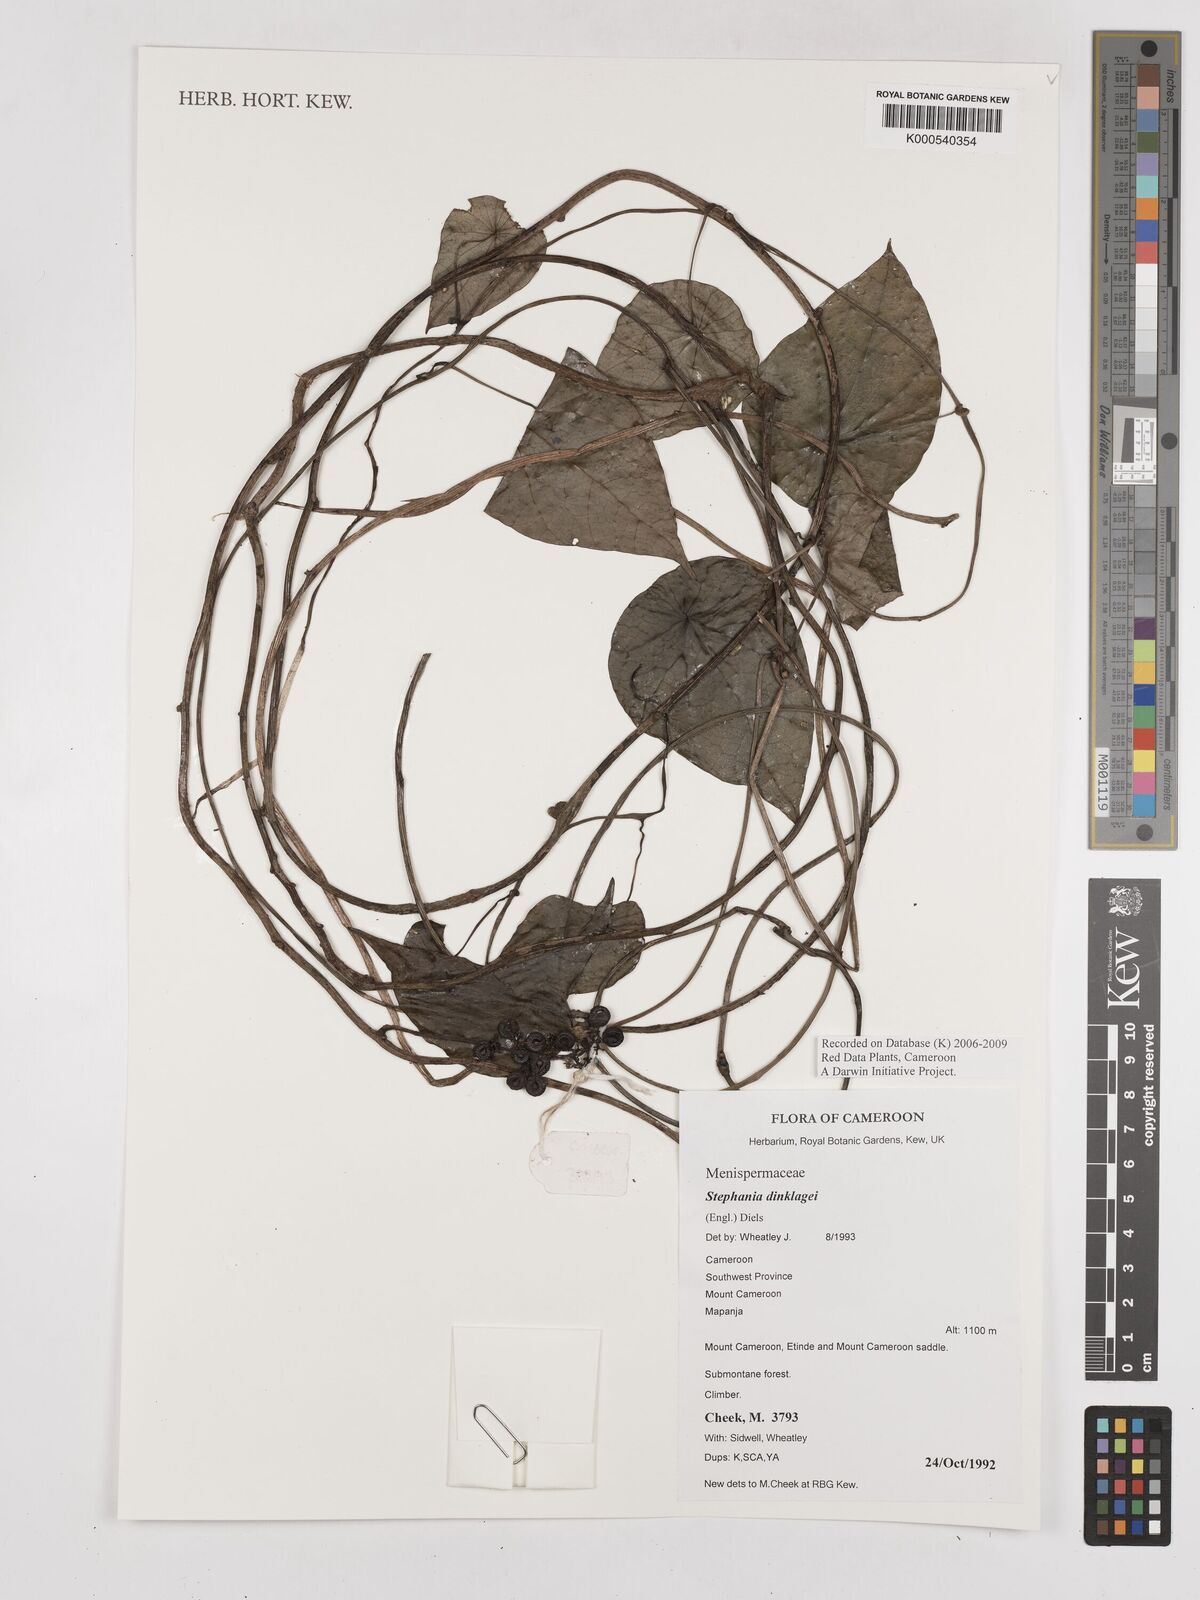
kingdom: Plantae
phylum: Tracheophyta
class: Magnoliopsida
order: Ranunculales
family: Menispermaceae
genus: Stephania
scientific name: Stephania dinklagei
